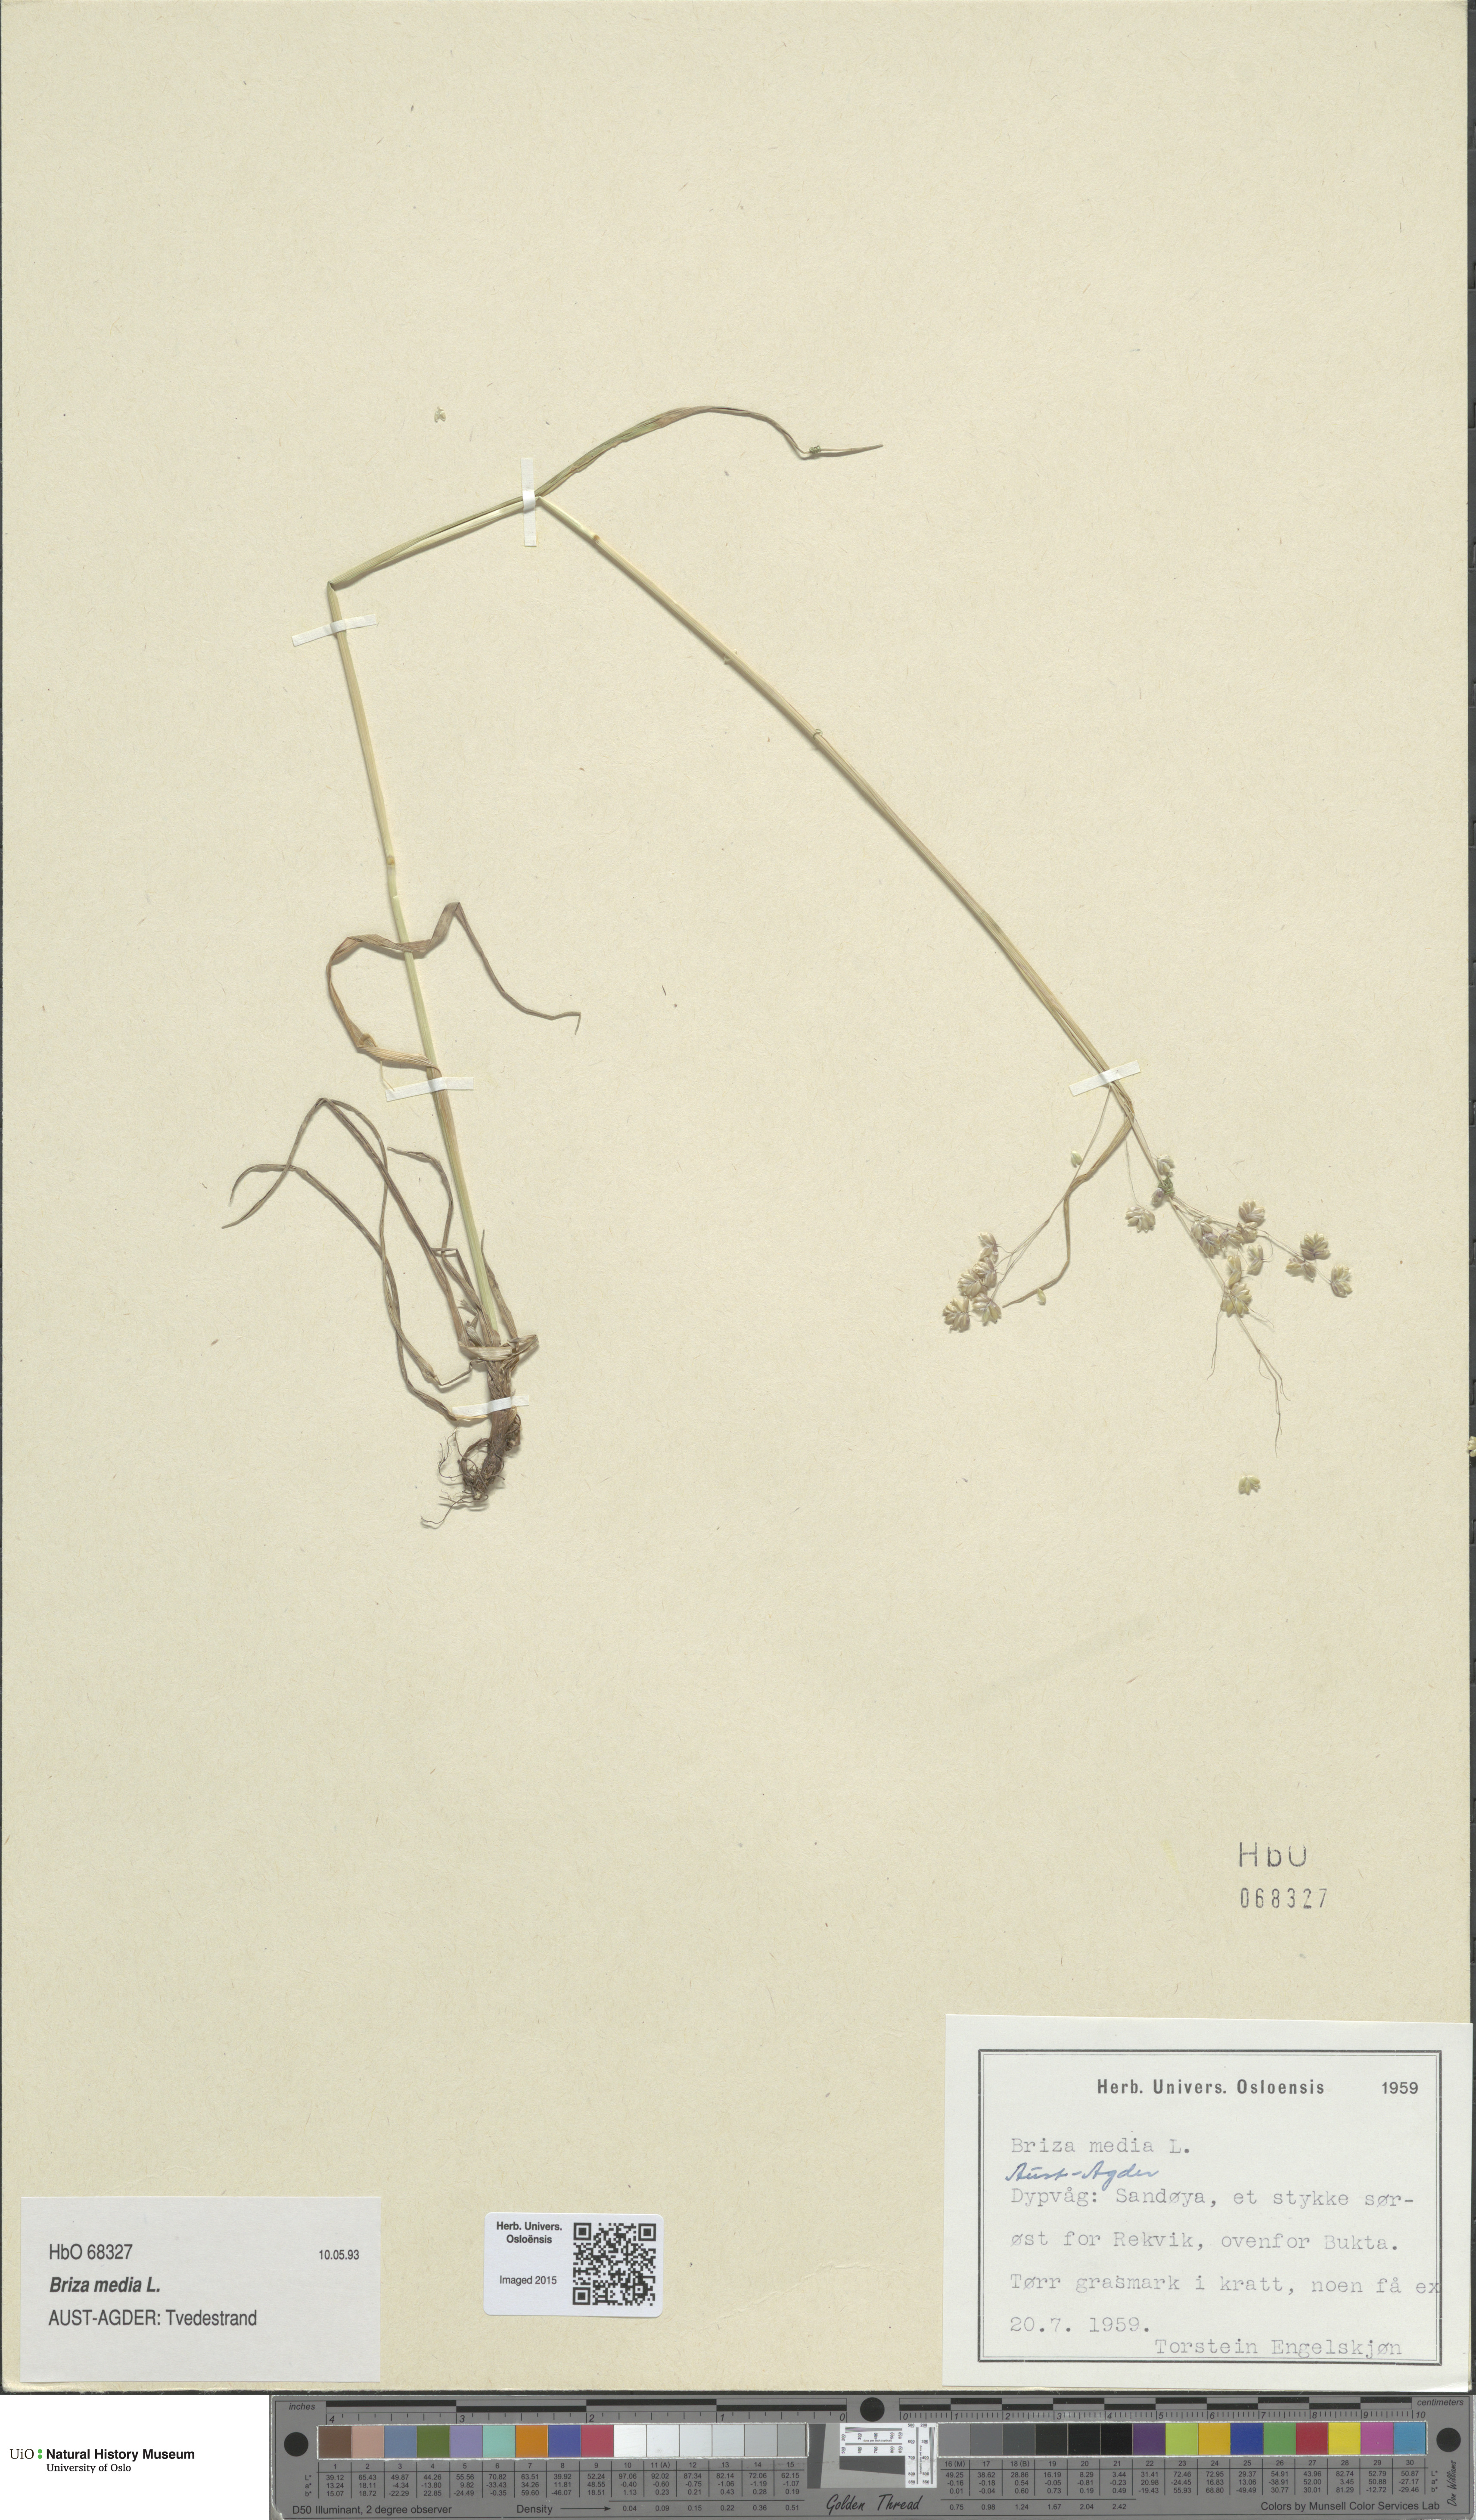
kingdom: Plantae
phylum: Tracheophyta
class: Liliopsida
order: Poales
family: Poaceae
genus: Briza
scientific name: Briza media
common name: Quaking grass
